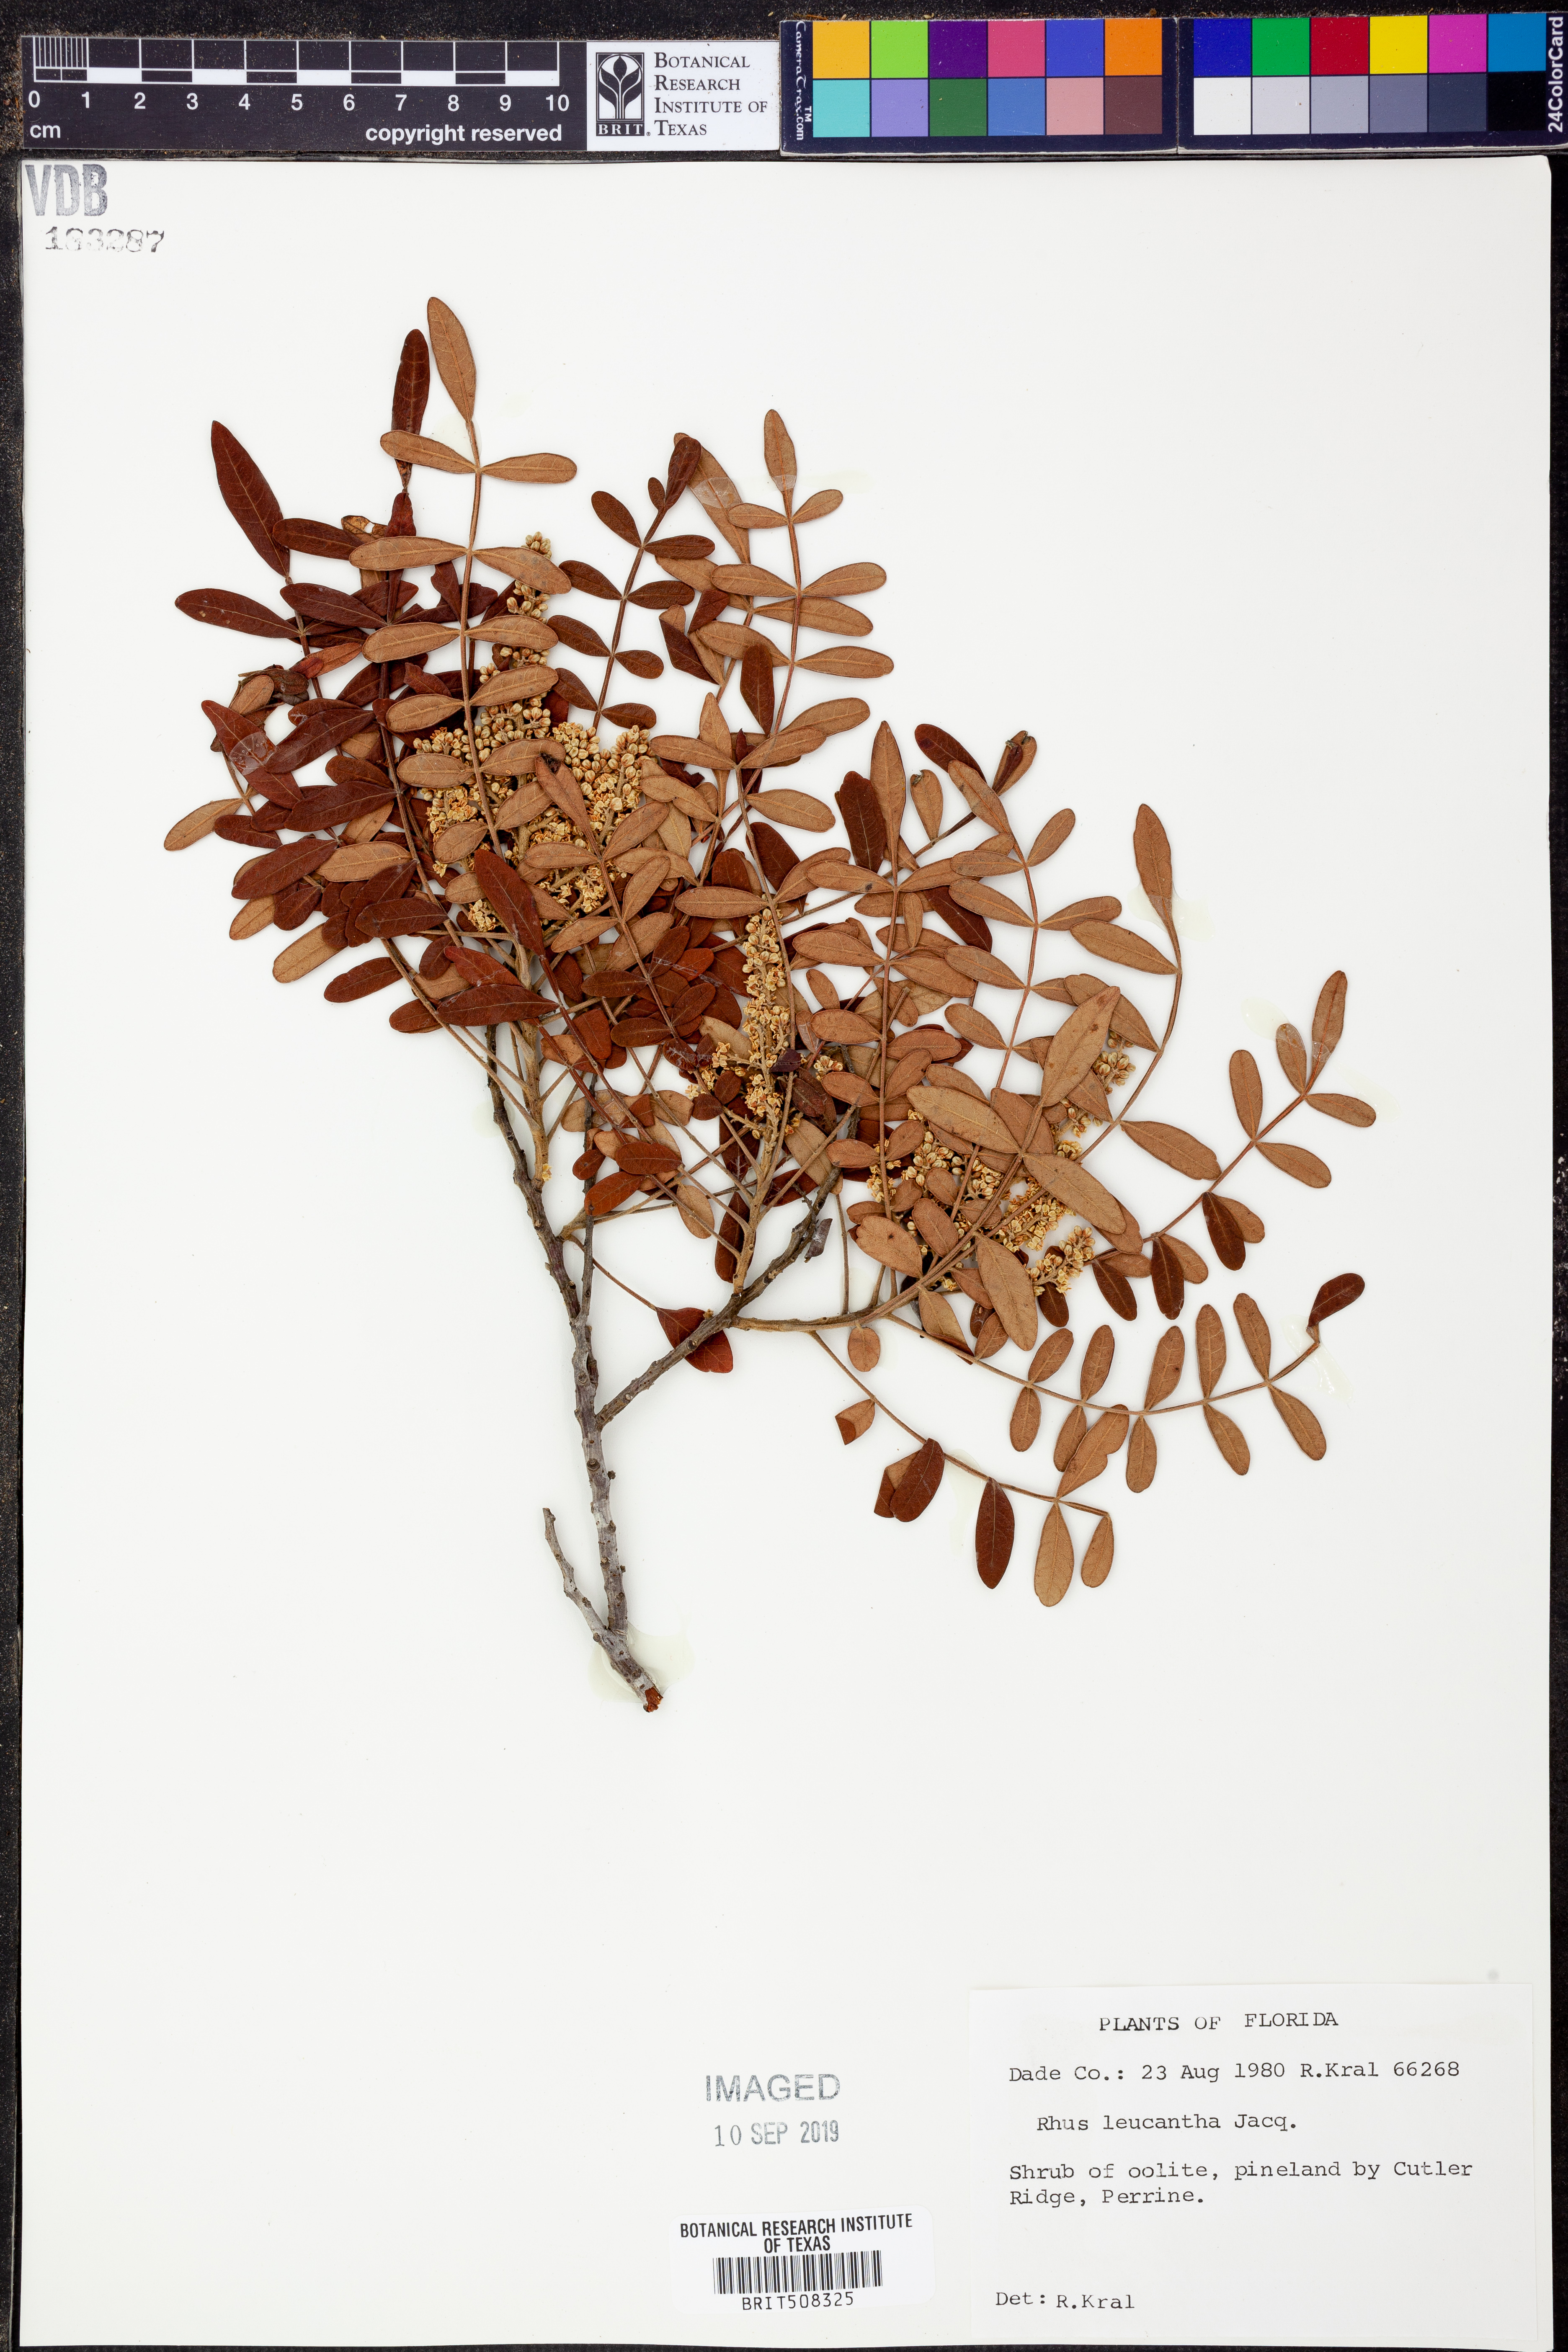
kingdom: Plantae
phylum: Tracheophyta
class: Magnoliopsida
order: Sapindales
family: Anacardiaceae
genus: Rhus
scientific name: Rhus copallina
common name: Shining sumac
